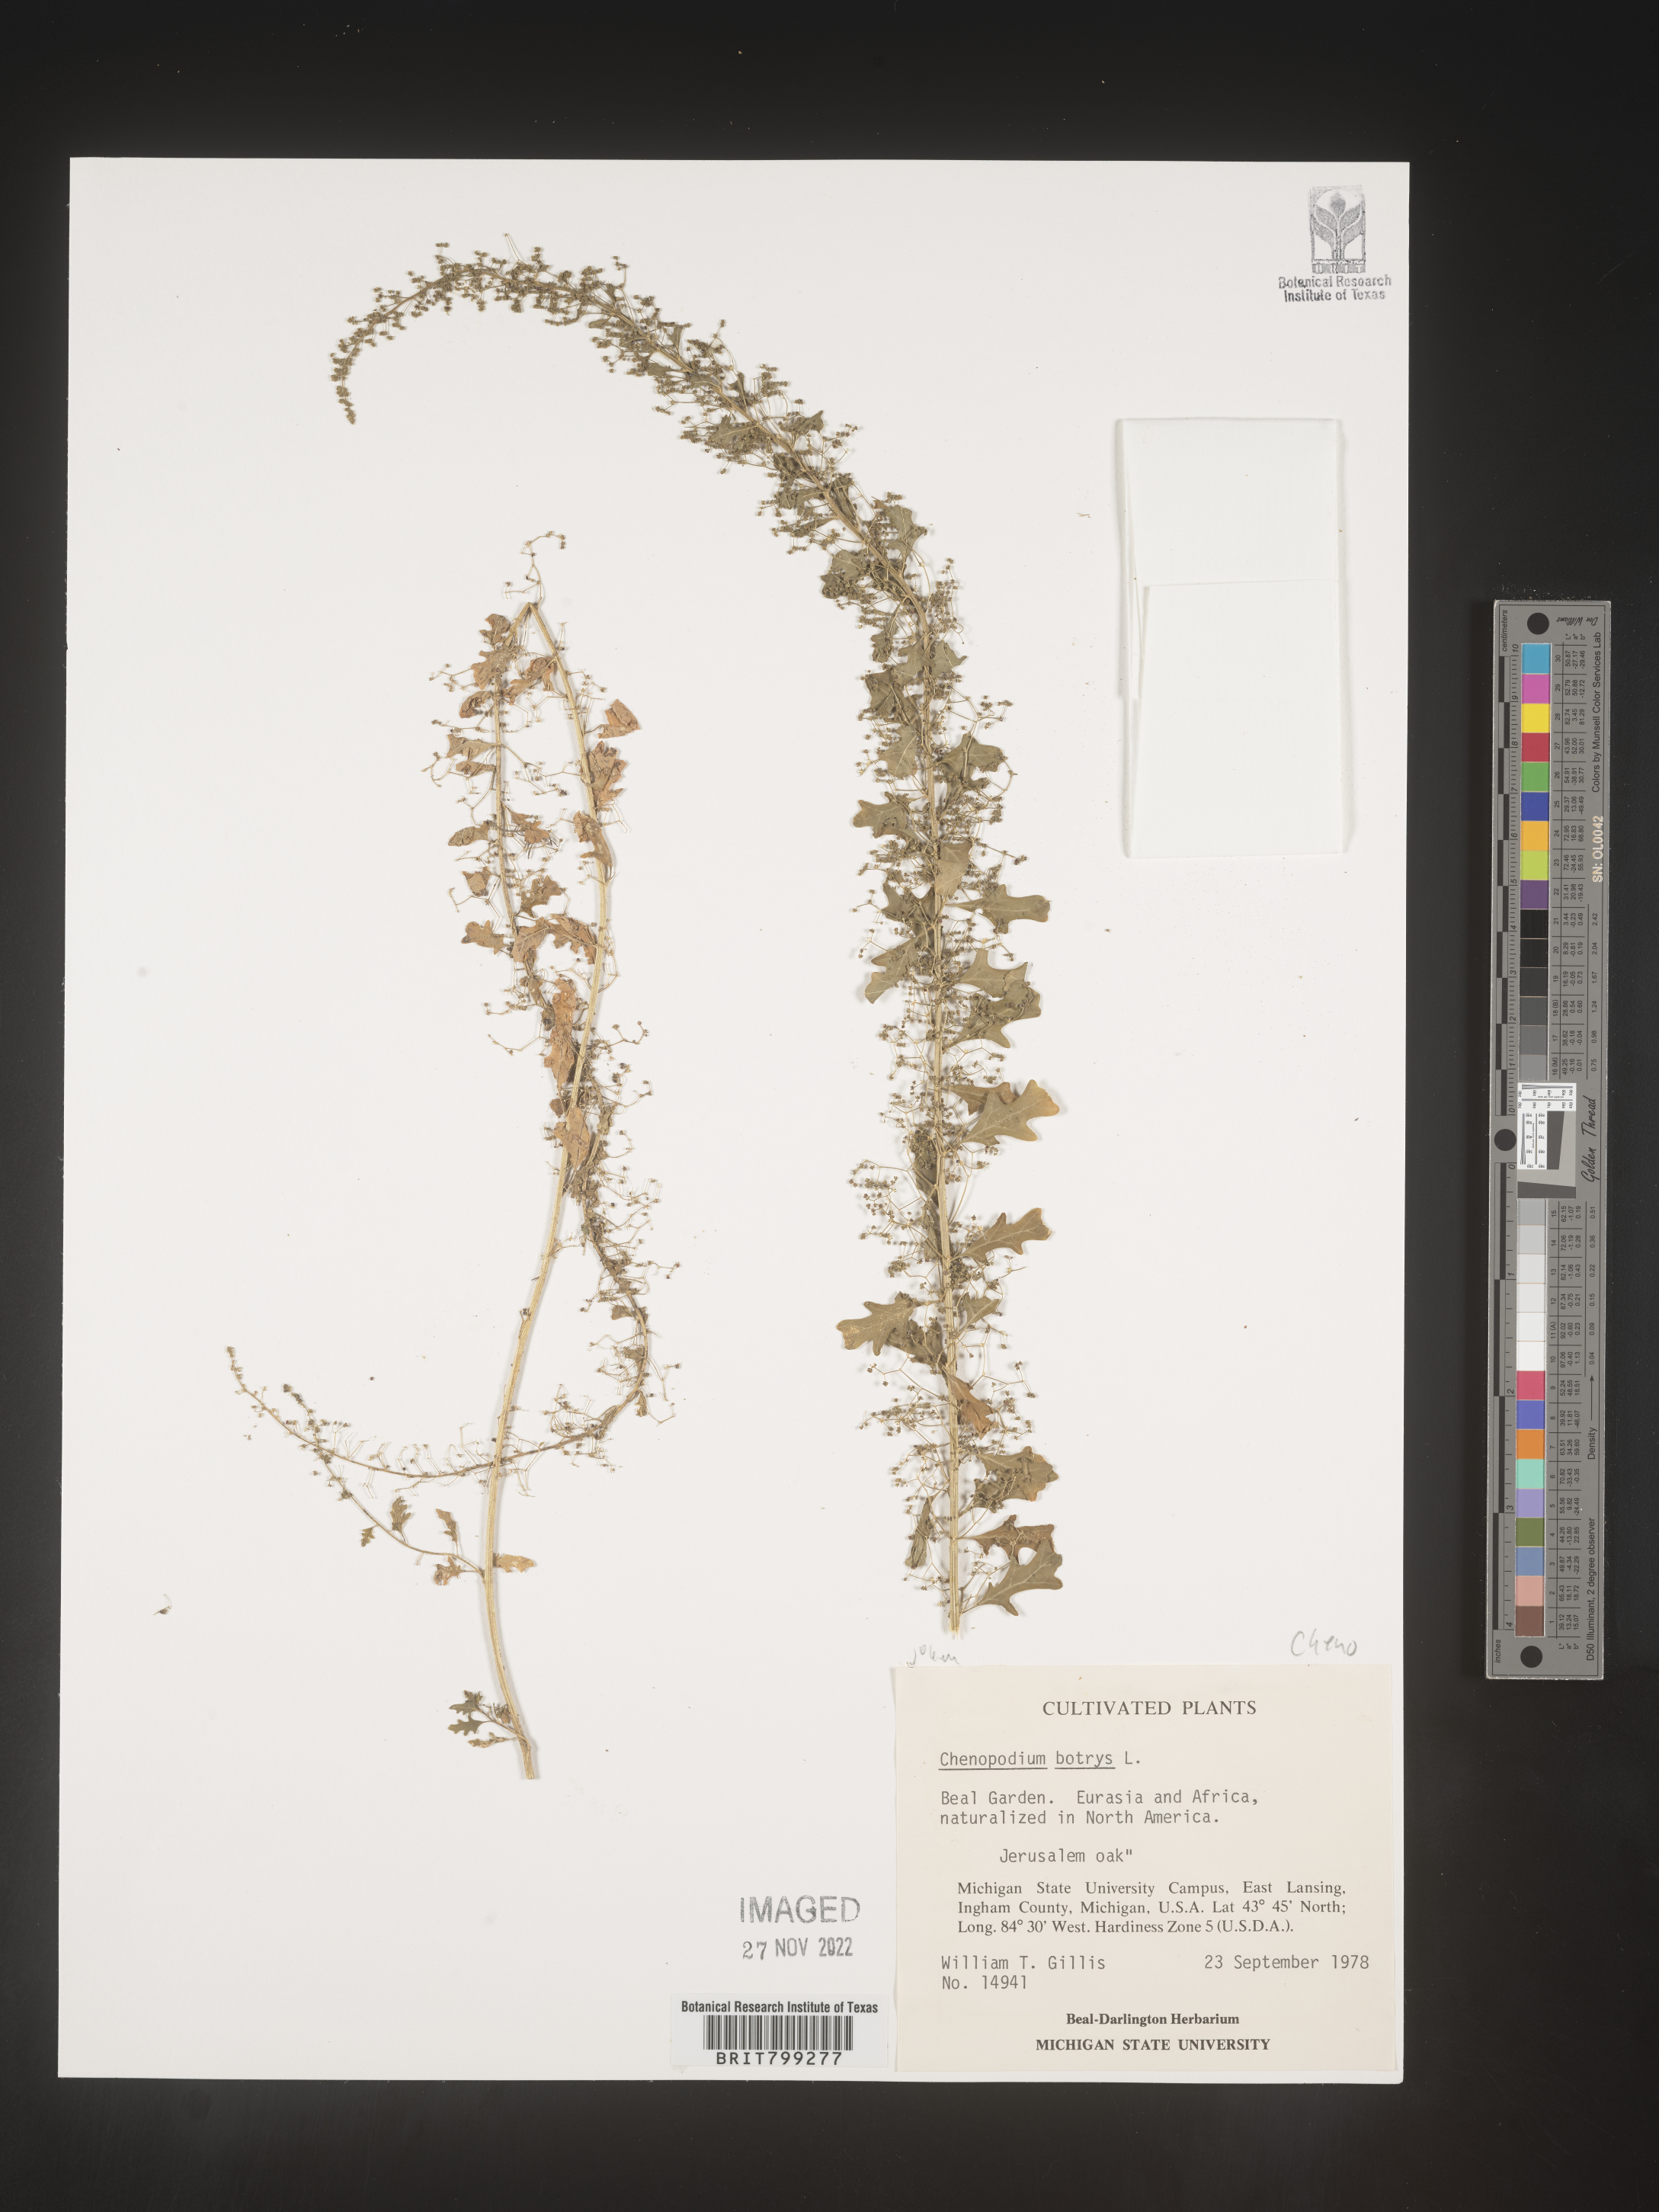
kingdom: Plantae
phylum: Tracheophyta
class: Magnoliopsida
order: Caryophyllales
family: Amaranthaceae
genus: Chenopodium
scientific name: Chenopodium
